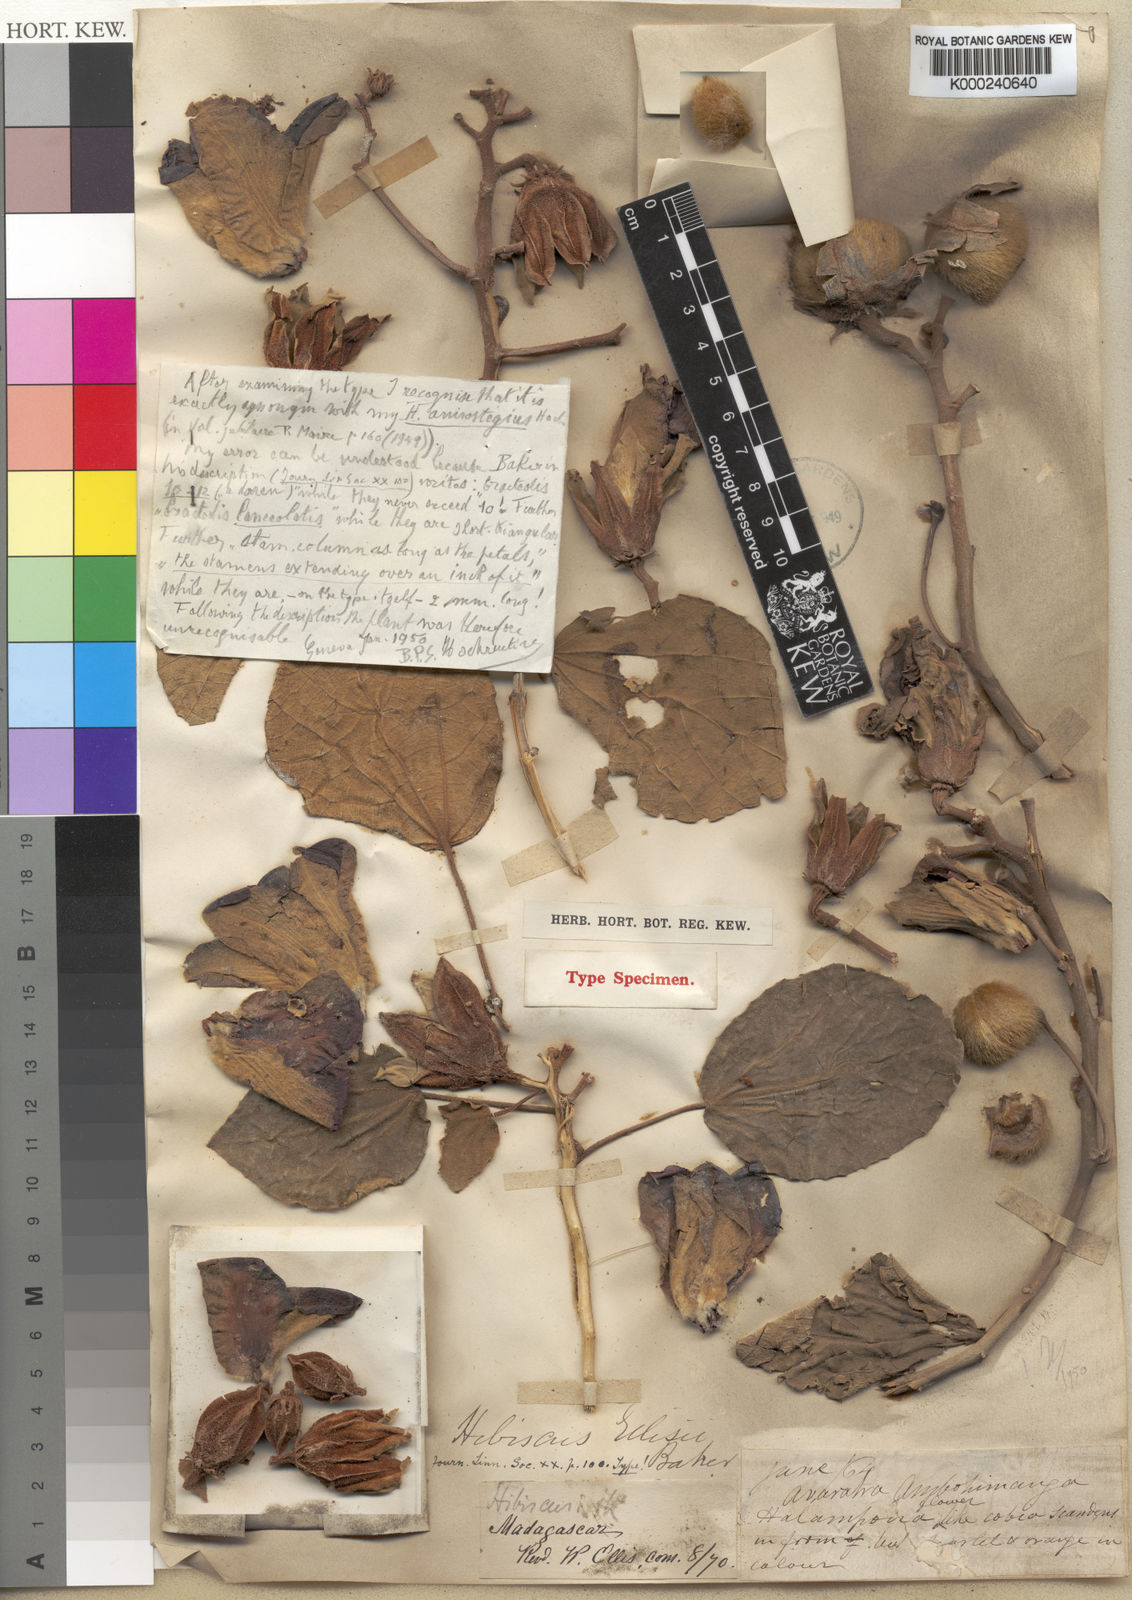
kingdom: Plantae
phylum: Tracheophyta
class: Magnoliopsida
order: Malvales
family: Malvaceae
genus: Hibiscus
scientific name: Hibiscus ellisii
